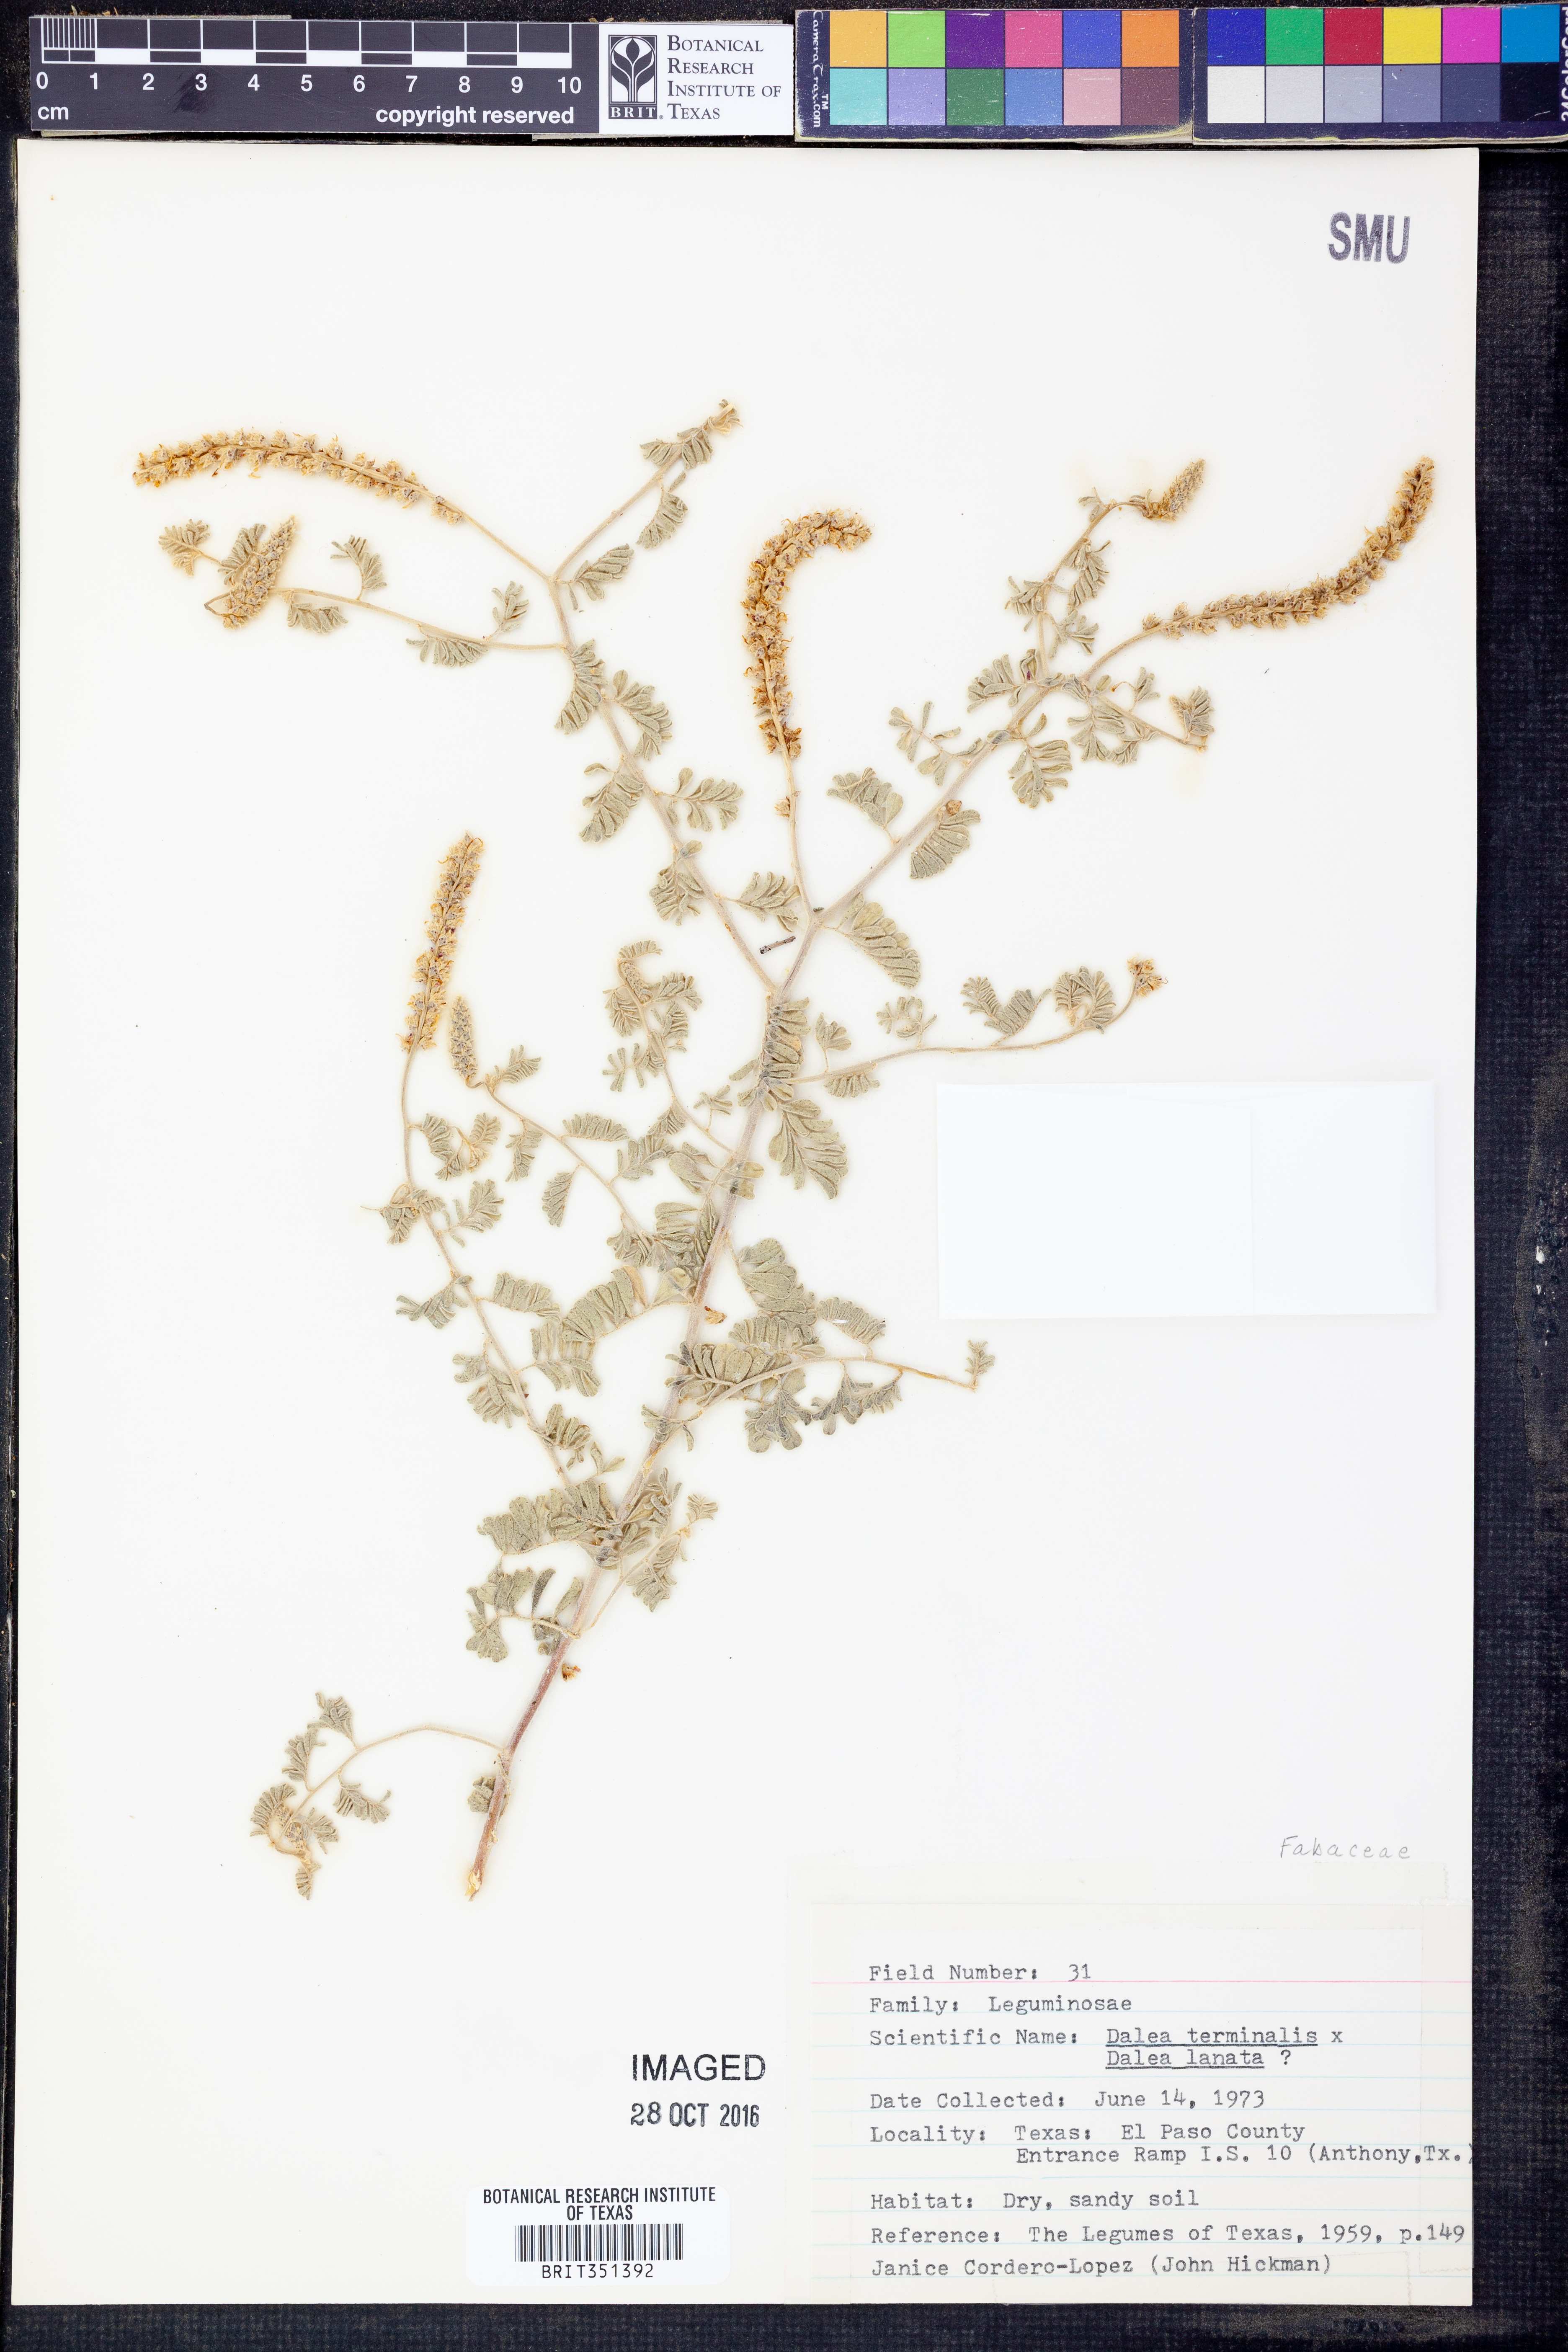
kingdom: Plantae
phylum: Tracheophyta
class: Magnoliopsida
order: Fabales
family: Fabaceae
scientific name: Fabaceae
